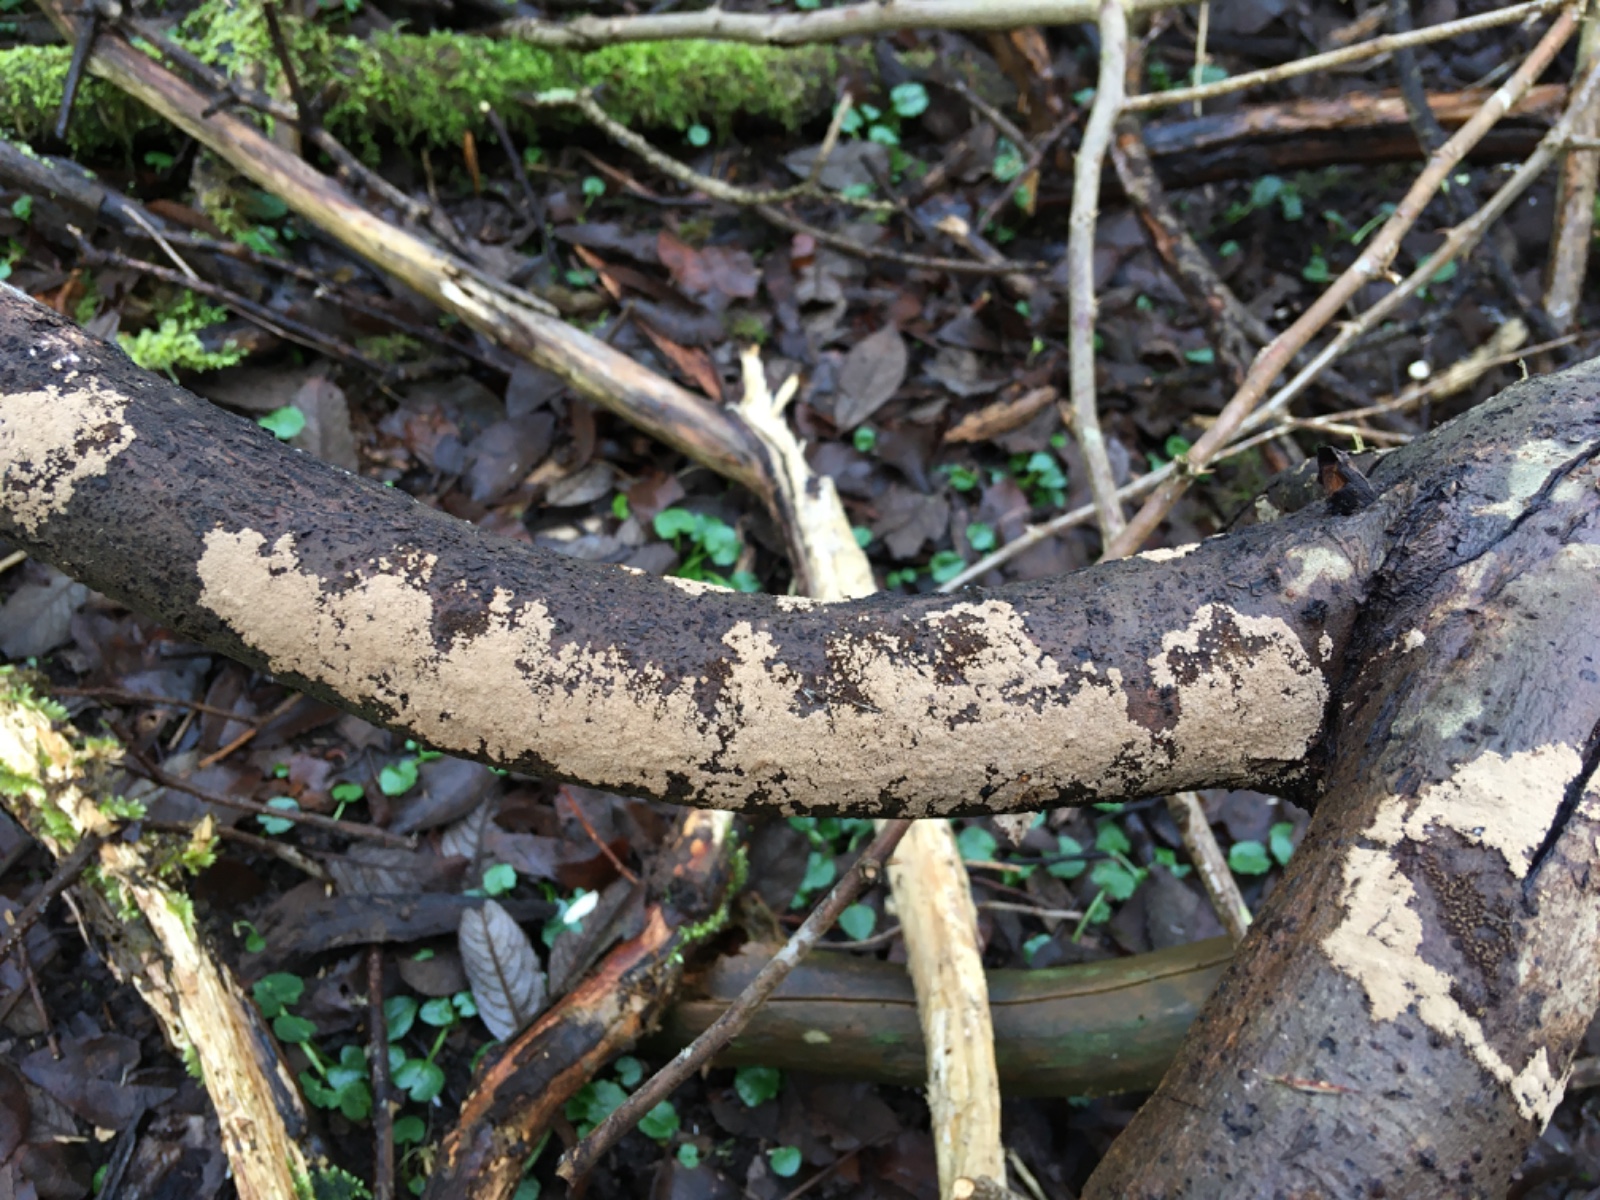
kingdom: Fungi
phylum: Basidiomycota
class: Agaricomycetes
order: Agaricales
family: Niaceae
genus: Merismodes
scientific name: Merismodes anomala
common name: almindelig læderskål
